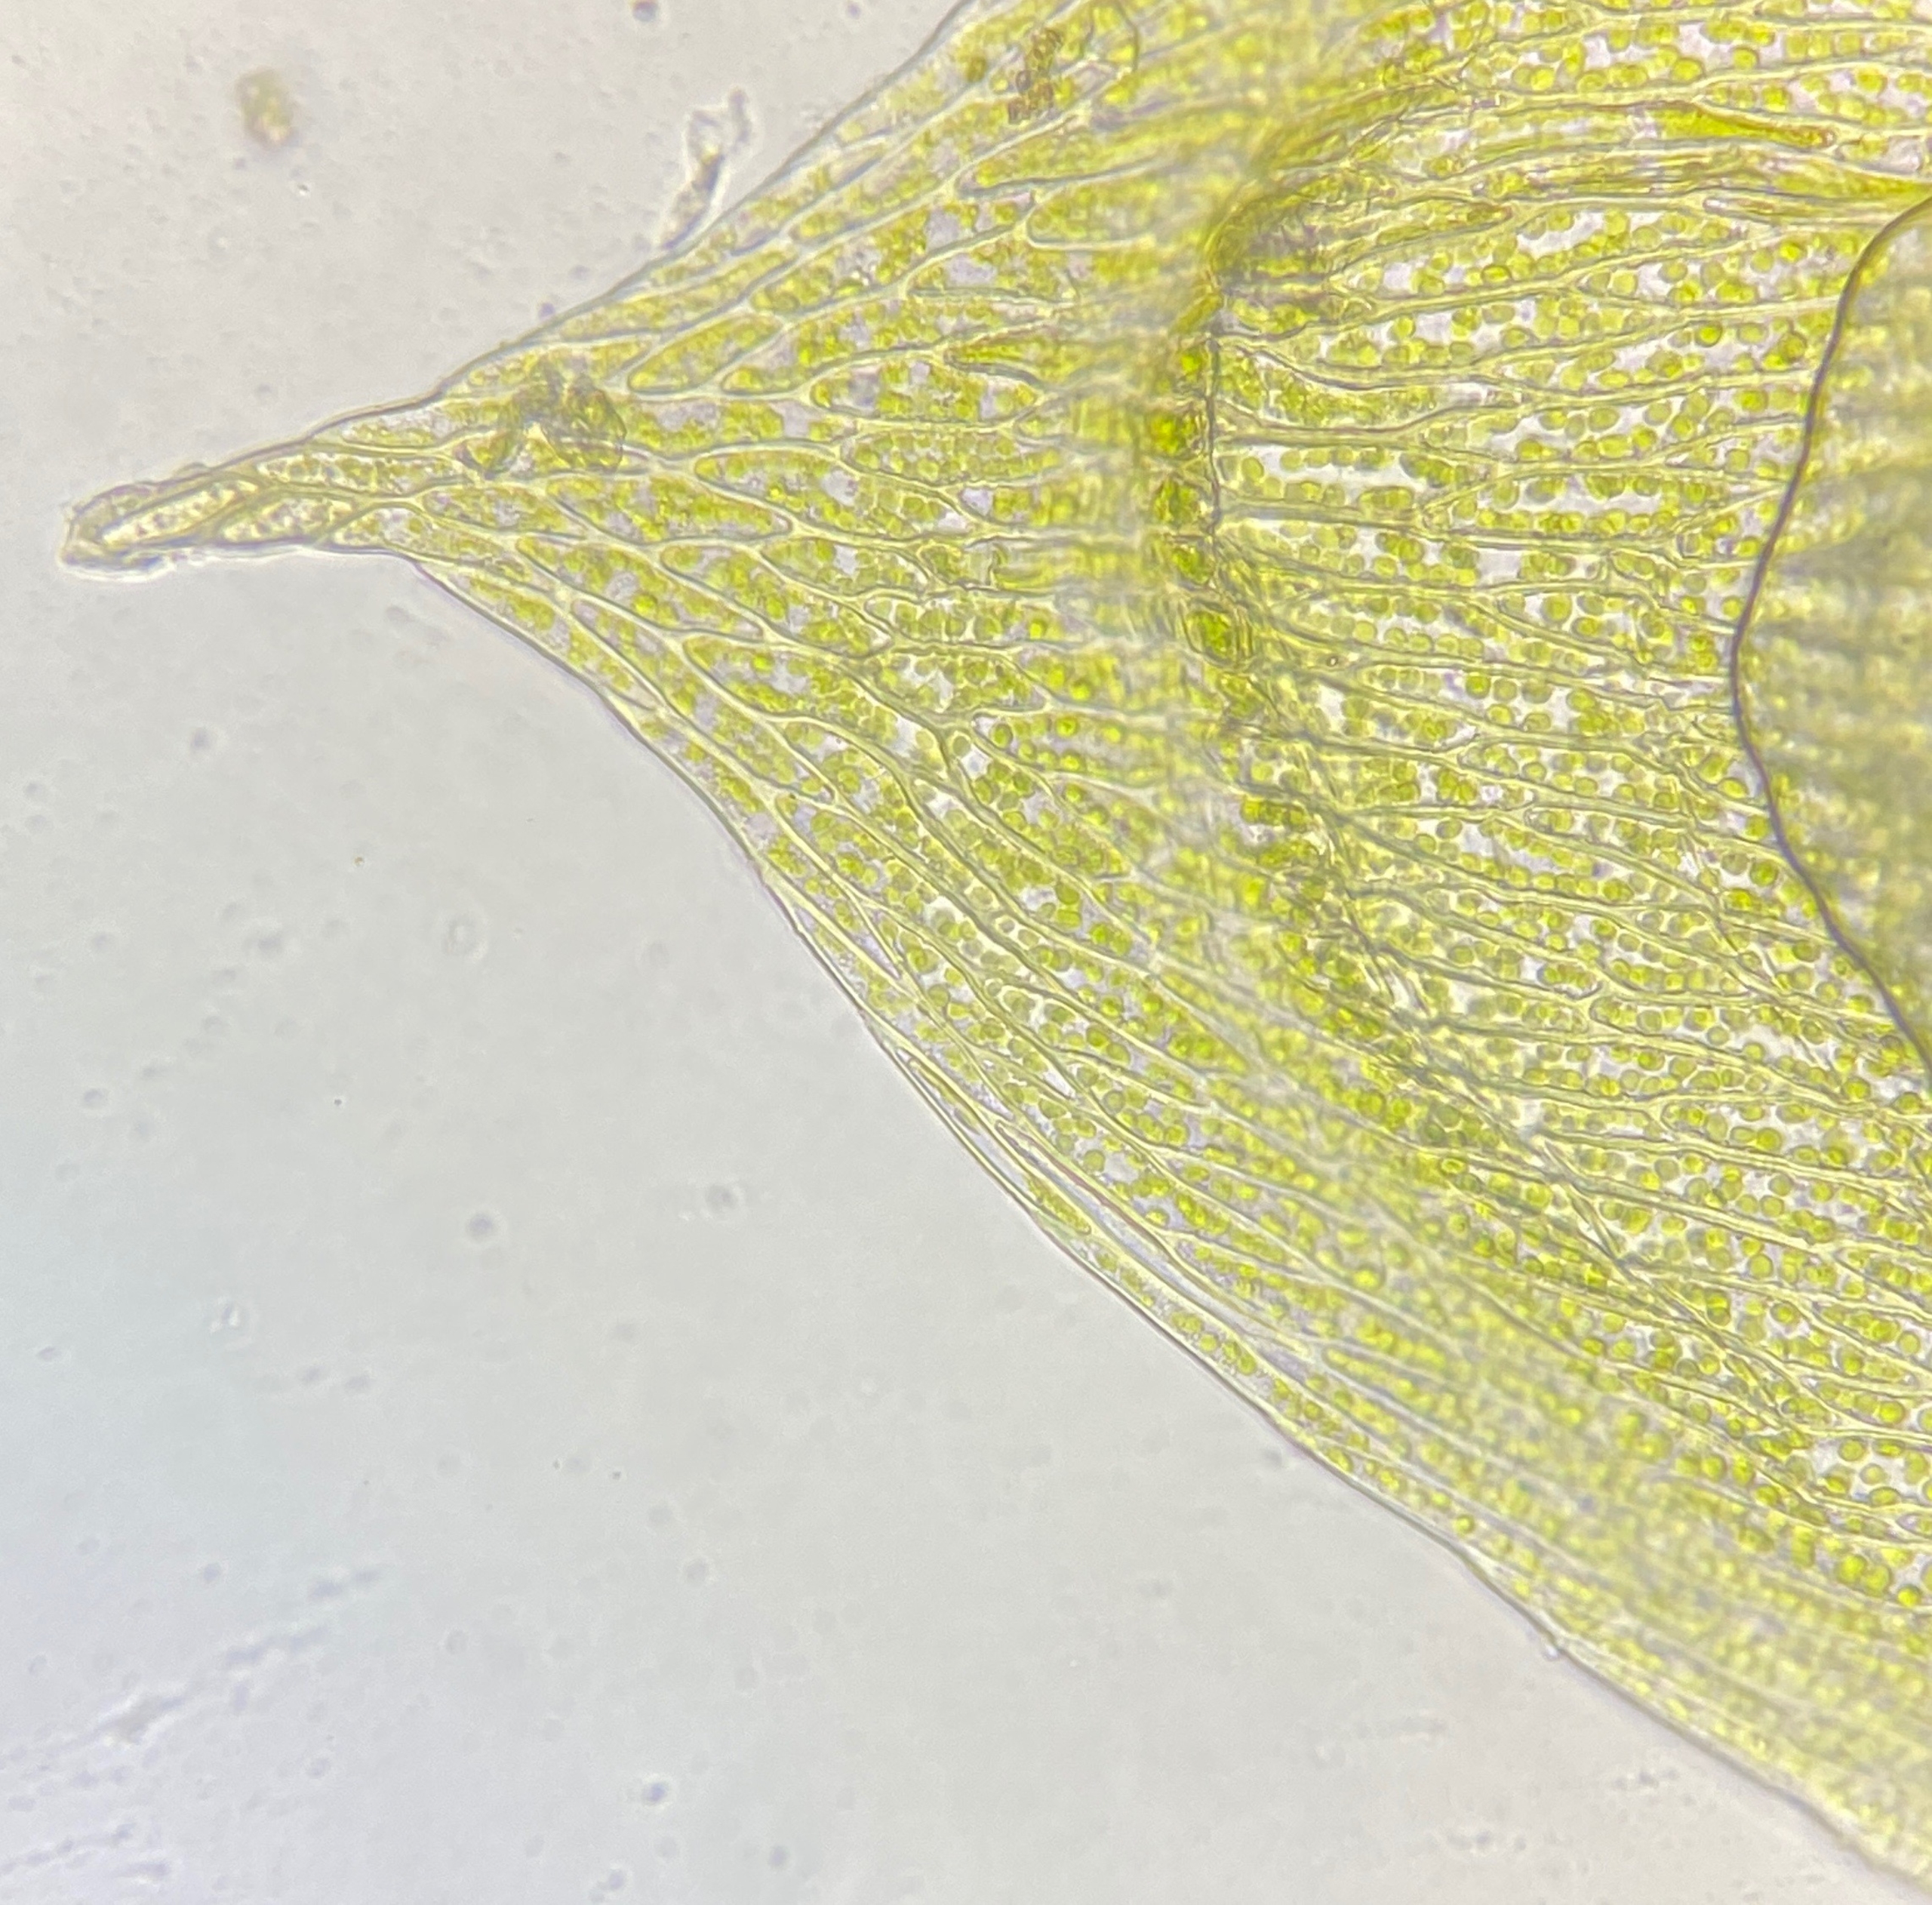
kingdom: Plantae
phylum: Bryophyta
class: Bryopsida
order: Hypnales
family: Plagiotheciaceae
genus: Plagiothecium
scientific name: Plagiothecium cavifolium
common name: Hulbladet tæppemos
